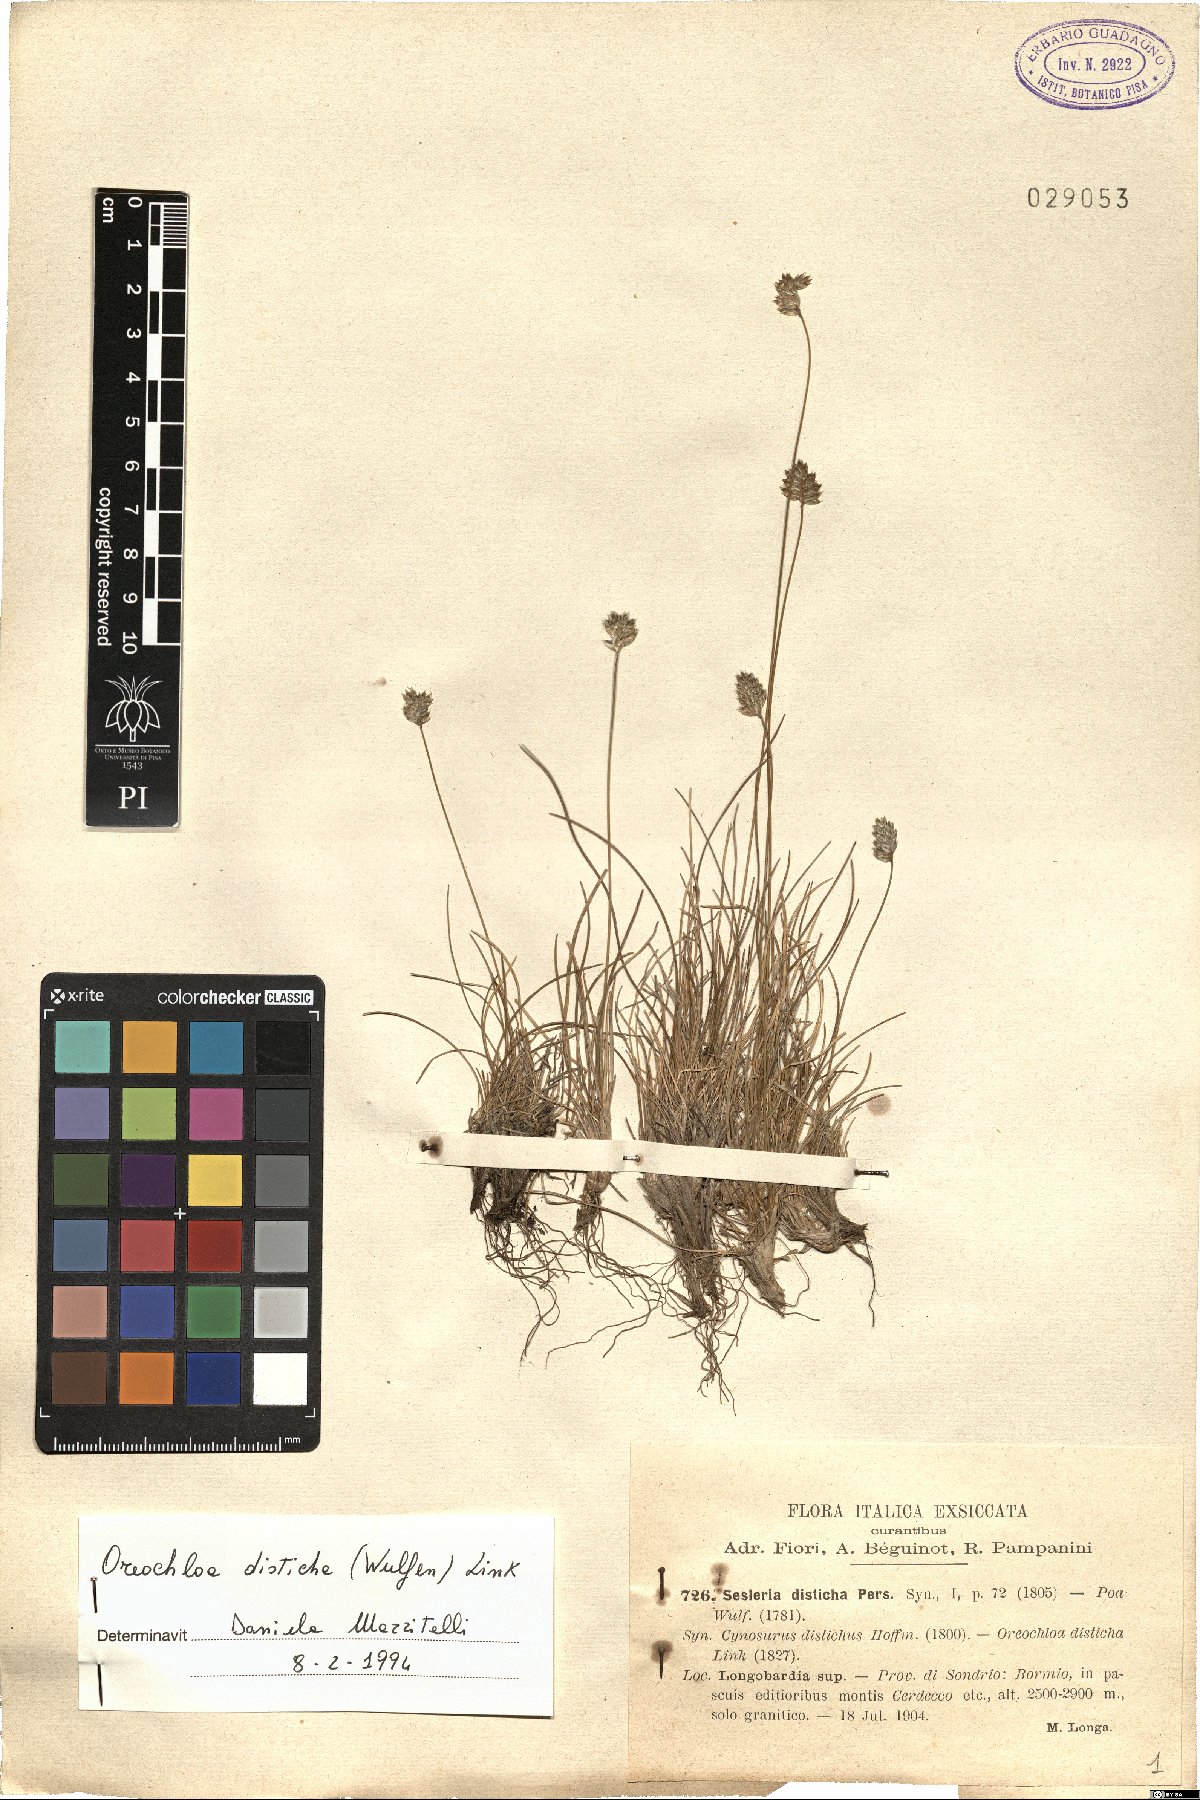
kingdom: Plantae
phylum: Tracheophyta
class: Liliopsida
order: Poales
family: Poaceae
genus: Oreochloa
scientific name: Oreochloa disticha
